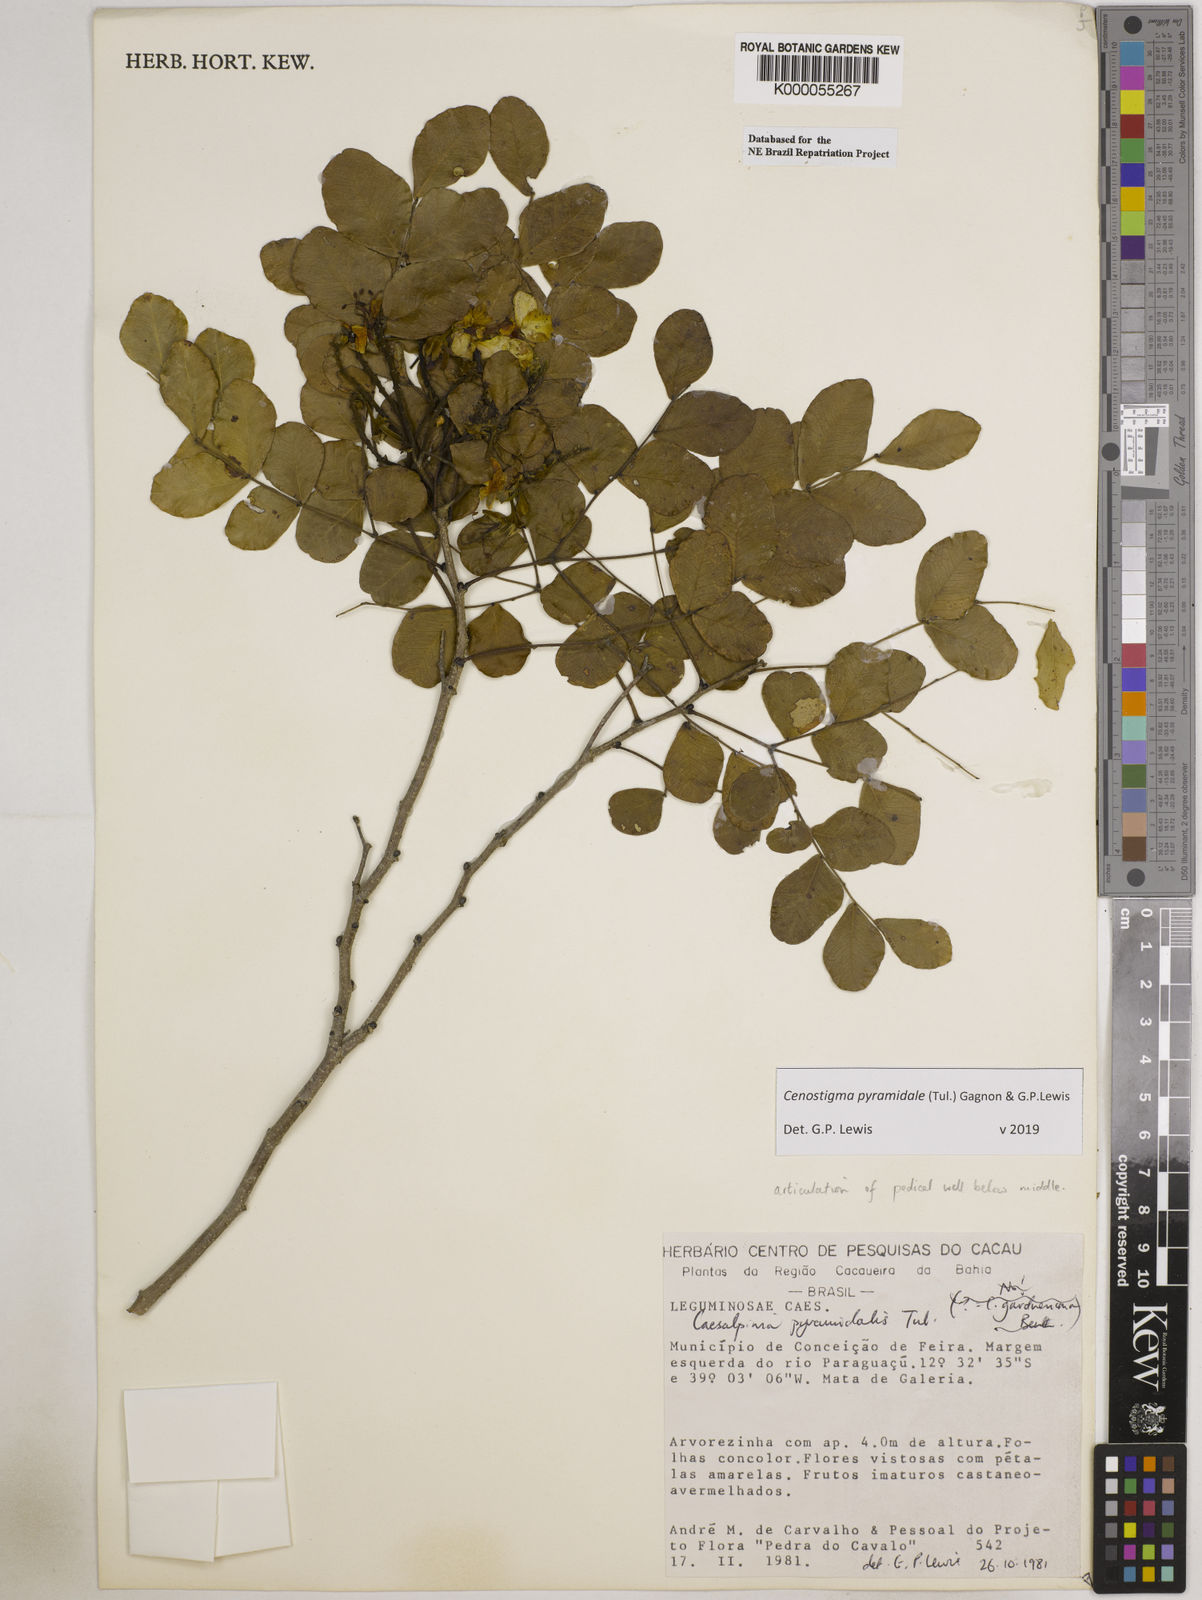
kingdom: Plantae
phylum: Tracheophyta
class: Magnoliopsida
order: Fabales
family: Fabaceae
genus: Cenostigma
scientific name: Cenostigma pyramidale
